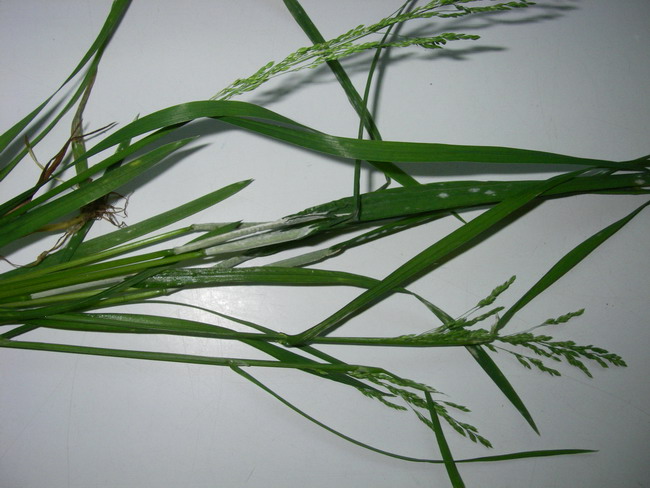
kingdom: Fungi
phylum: Ascomycota
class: Sordariomycetes
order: Hypocreales
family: Clavicipitaceae
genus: Epichloe
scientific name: Epichloe typhina
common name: almindelig kernerør
